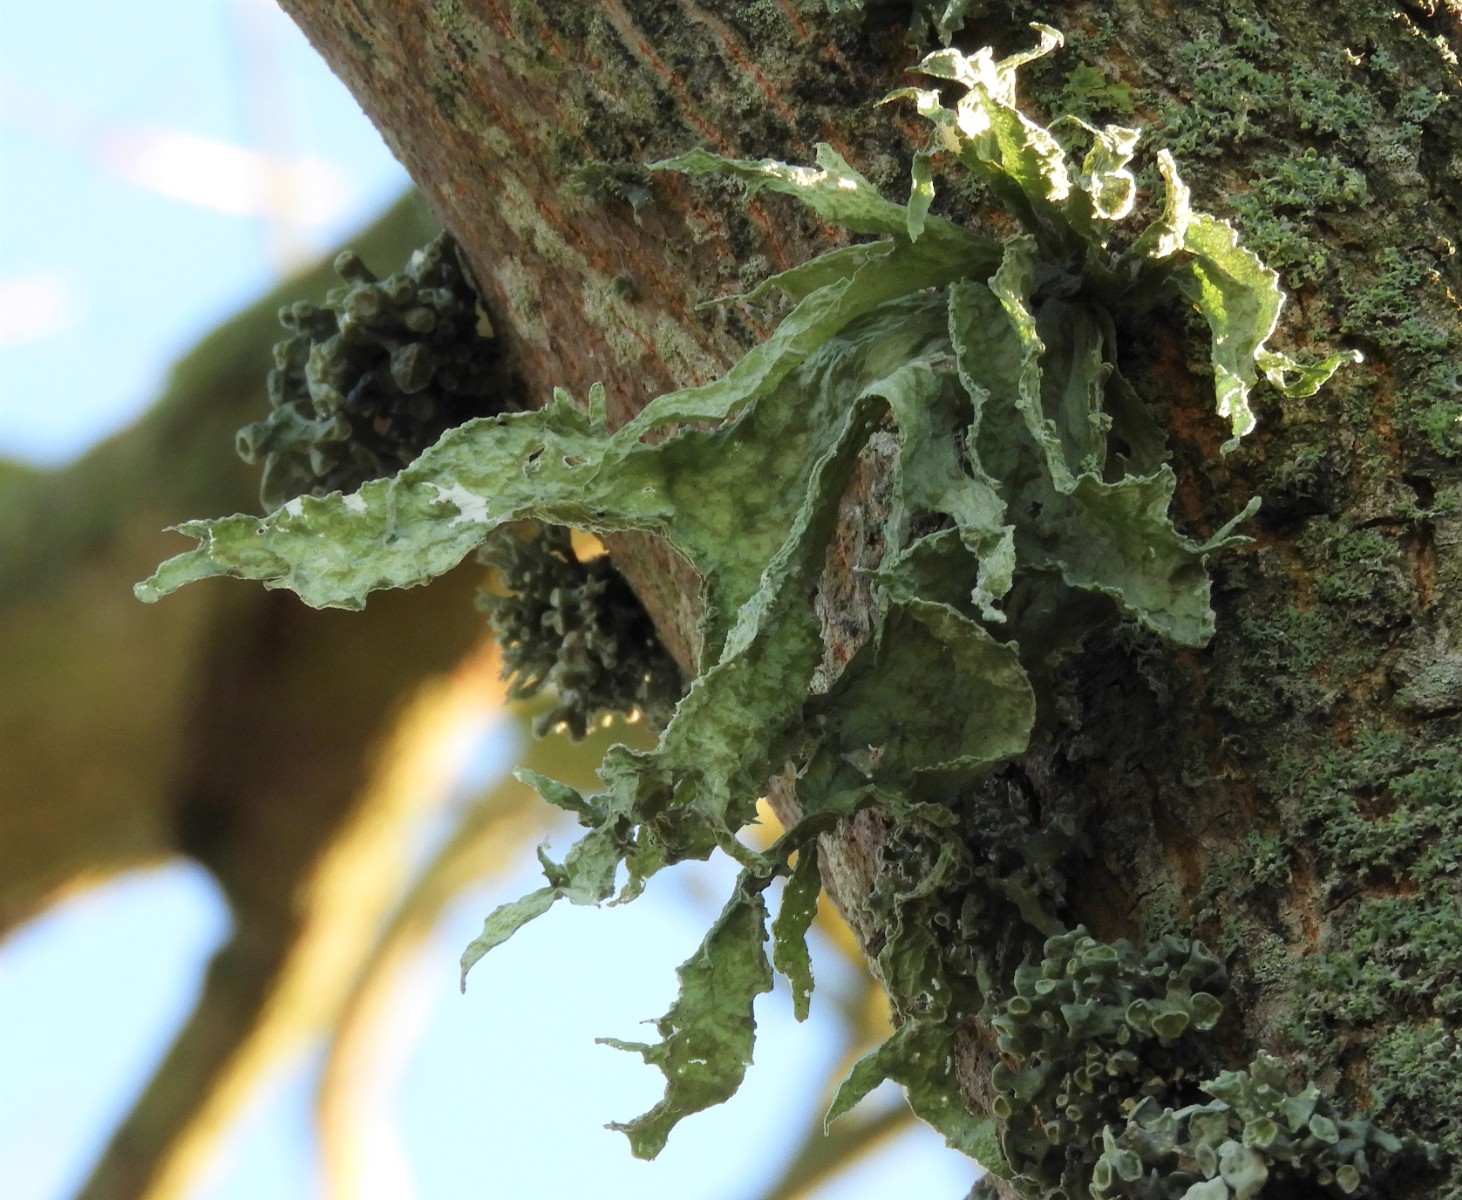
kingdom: Fungi
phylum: Ascomycota
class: Lecanoromycetes
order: Lecanorales
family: Ramalinaceae
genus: Ramalina
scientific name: Ramalina fraxinea
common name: stor grenlav
